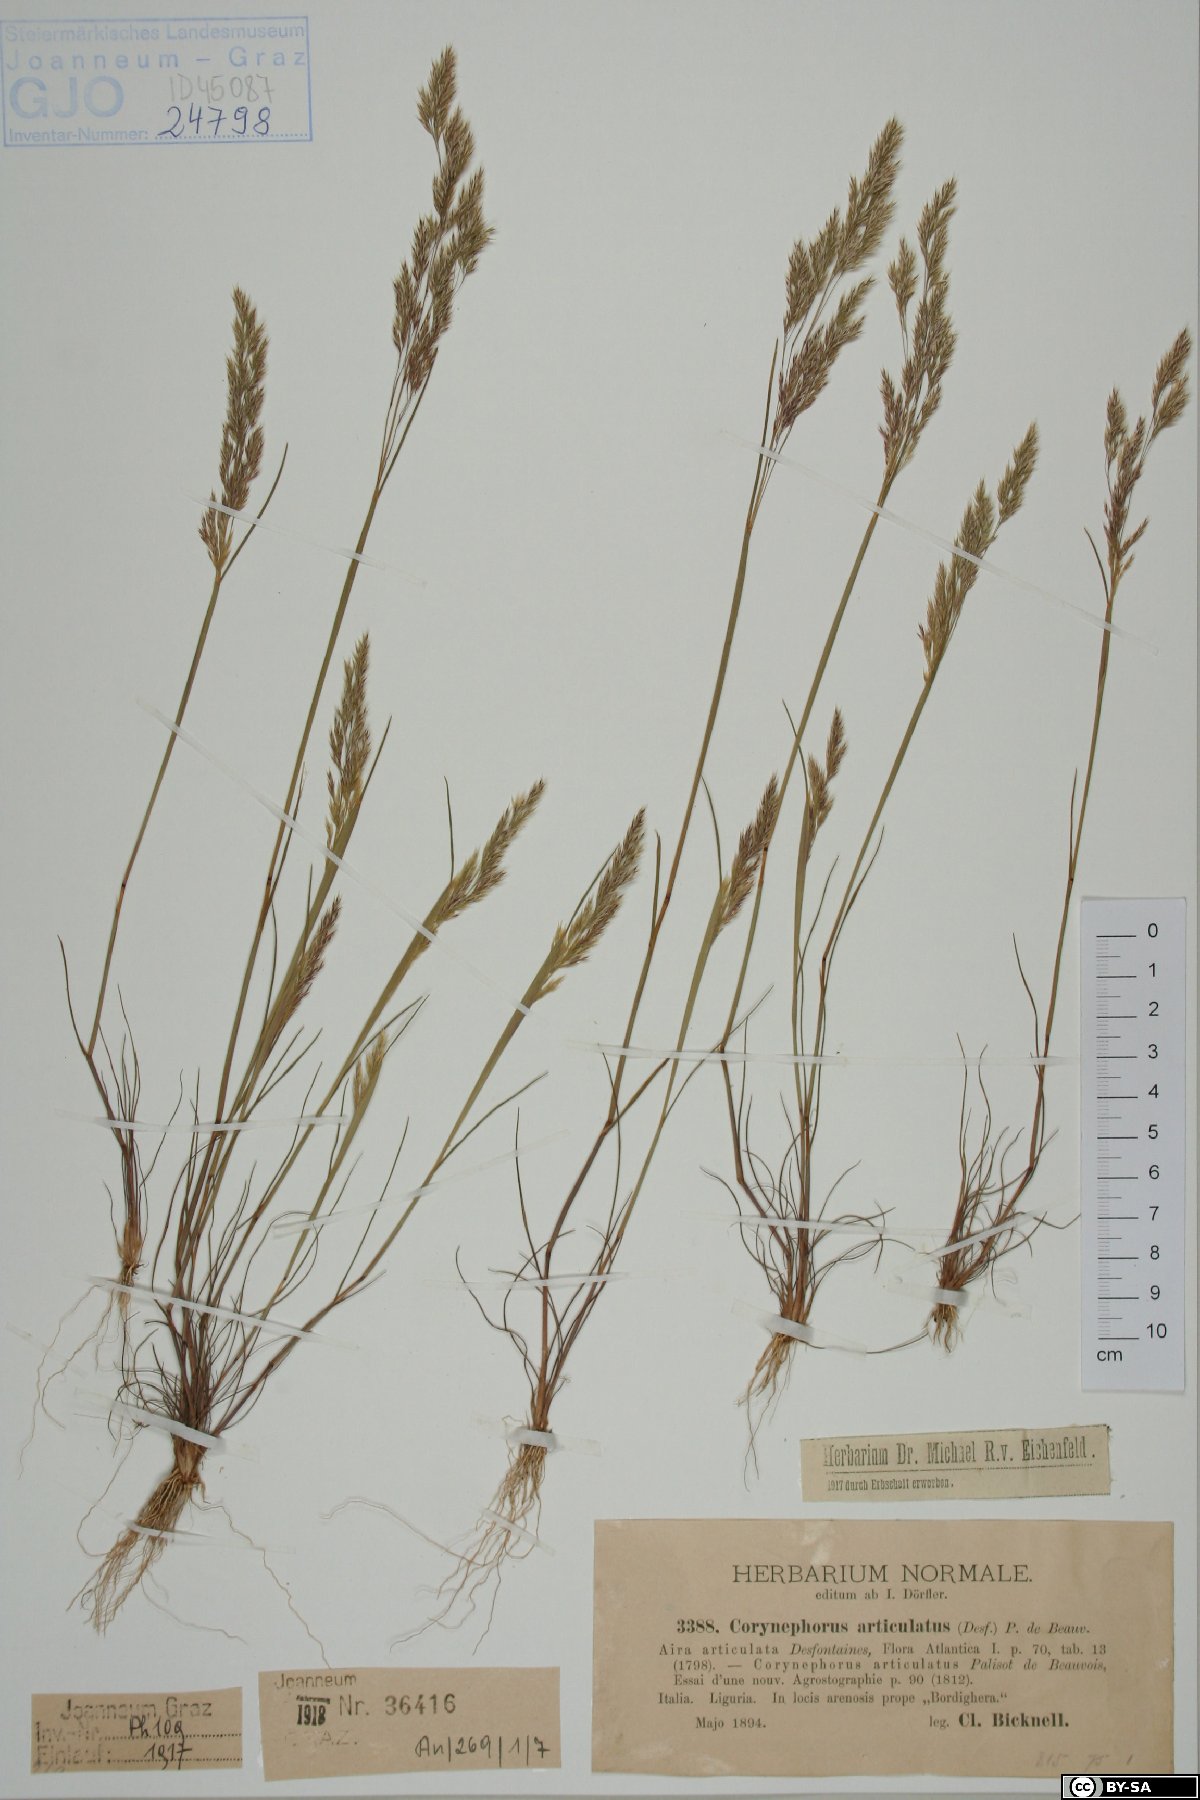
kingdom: Plantae
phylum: Tracheophyta
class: Liliopsida
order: Poales
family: Poaceae
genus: Corynephorus
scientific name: Corynephorus articulatus
